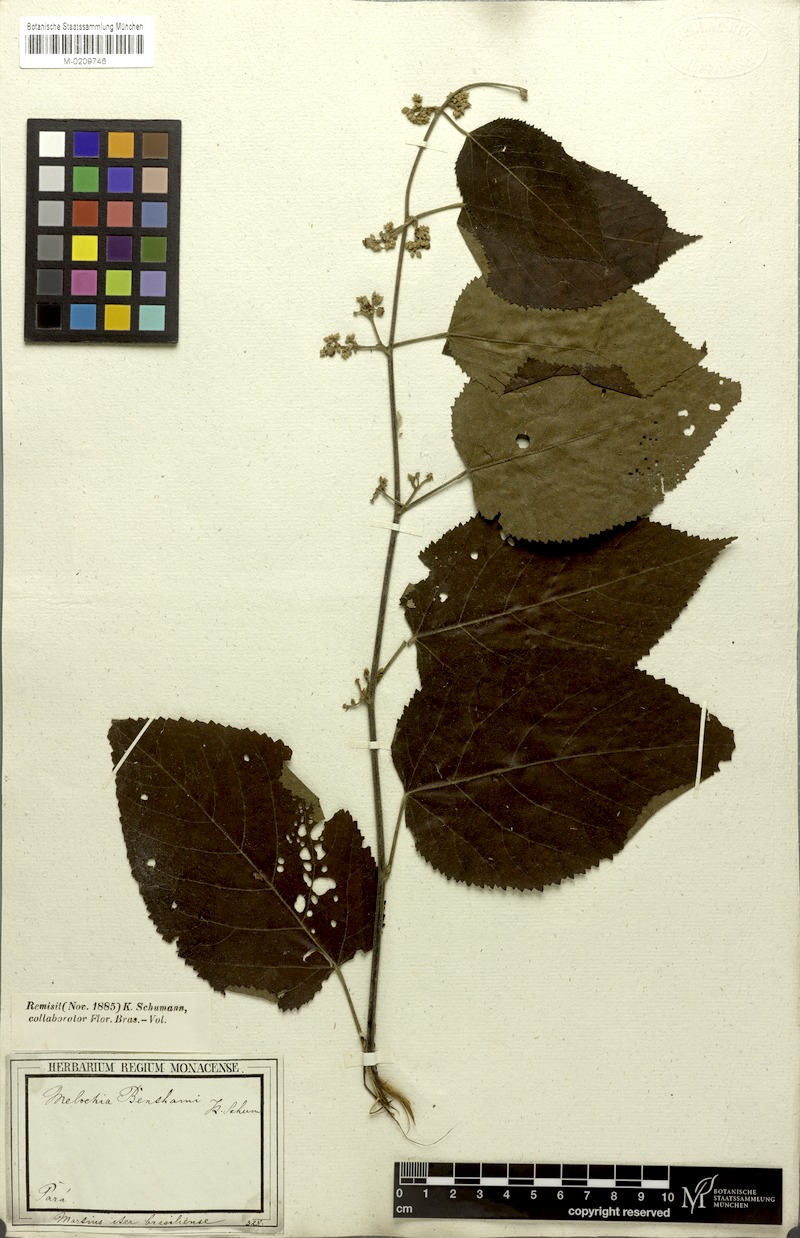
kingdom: Plantae
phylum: Tracheophyta
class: Magnoliopsida
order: Malvales
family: Malvaceae
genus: Melochia
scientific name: Melochia ulmifolia
